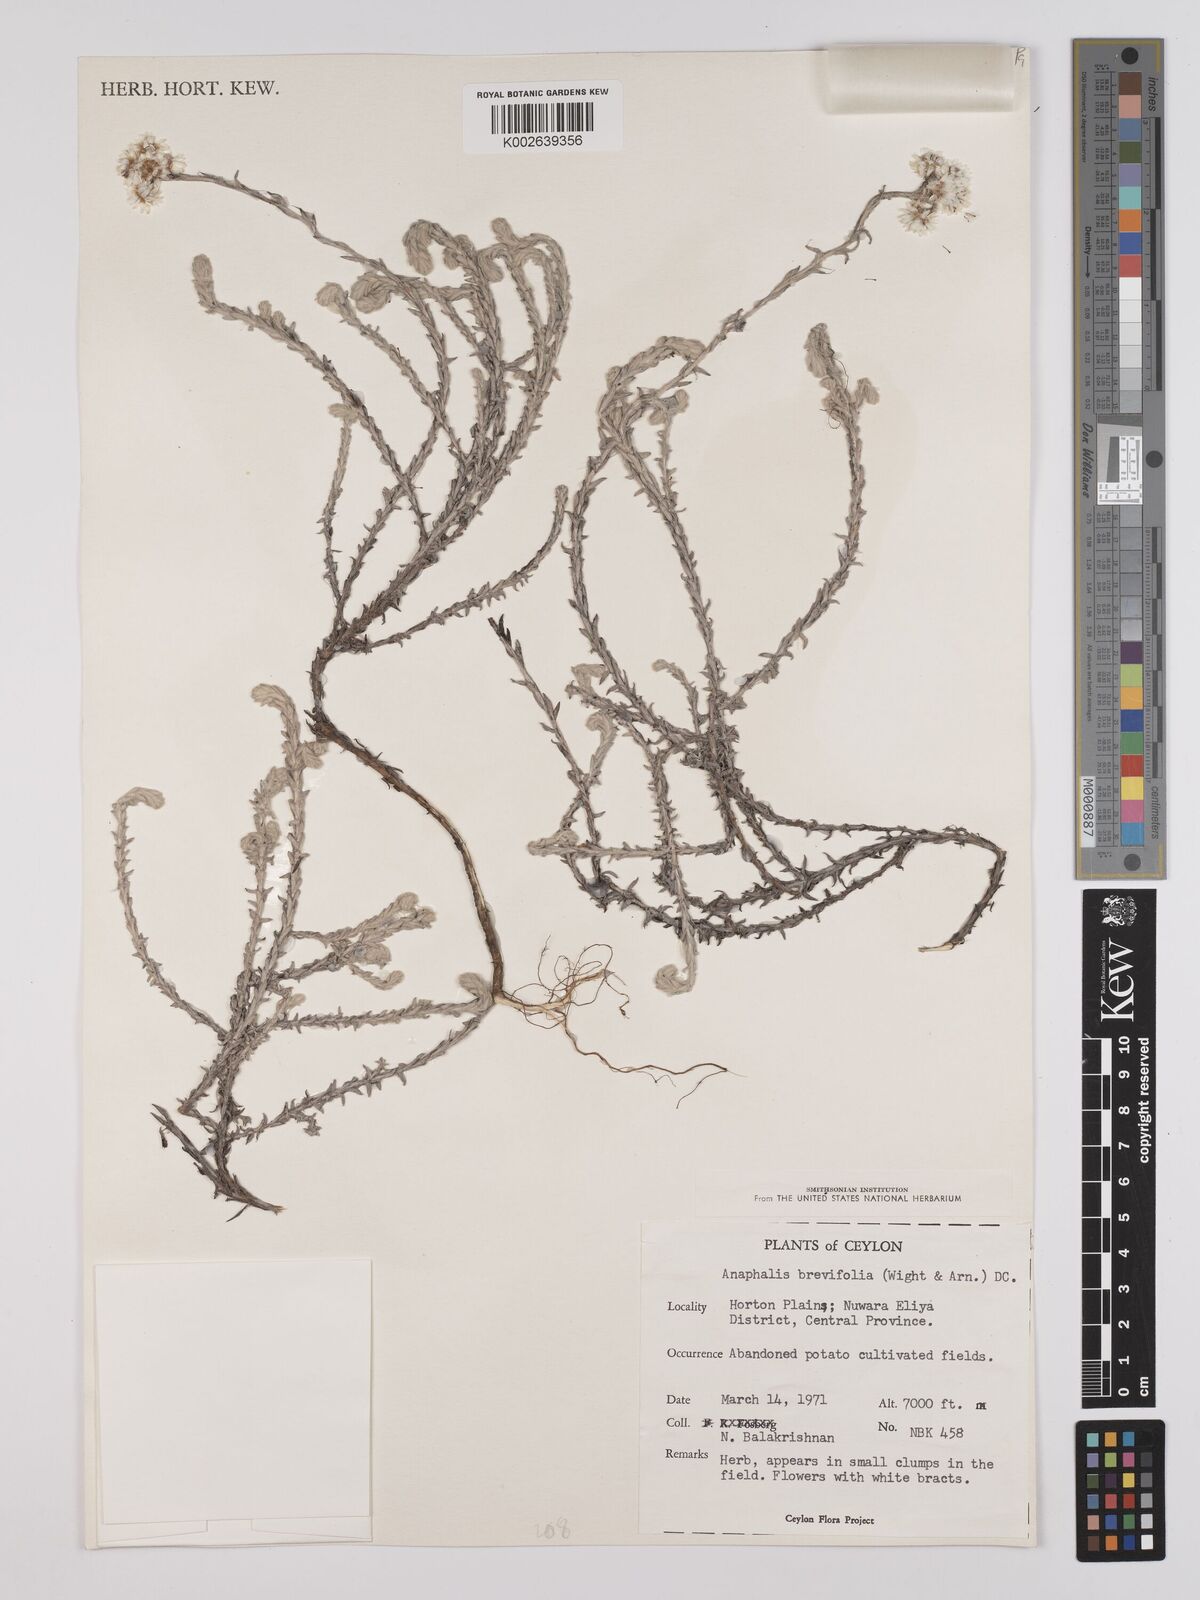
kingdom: Plantae
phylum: Tracheophyta
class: Magnoliopsida
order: Asterales
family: Asteraceae
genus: Anaphalis
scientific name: Anaphalis brevifolia
